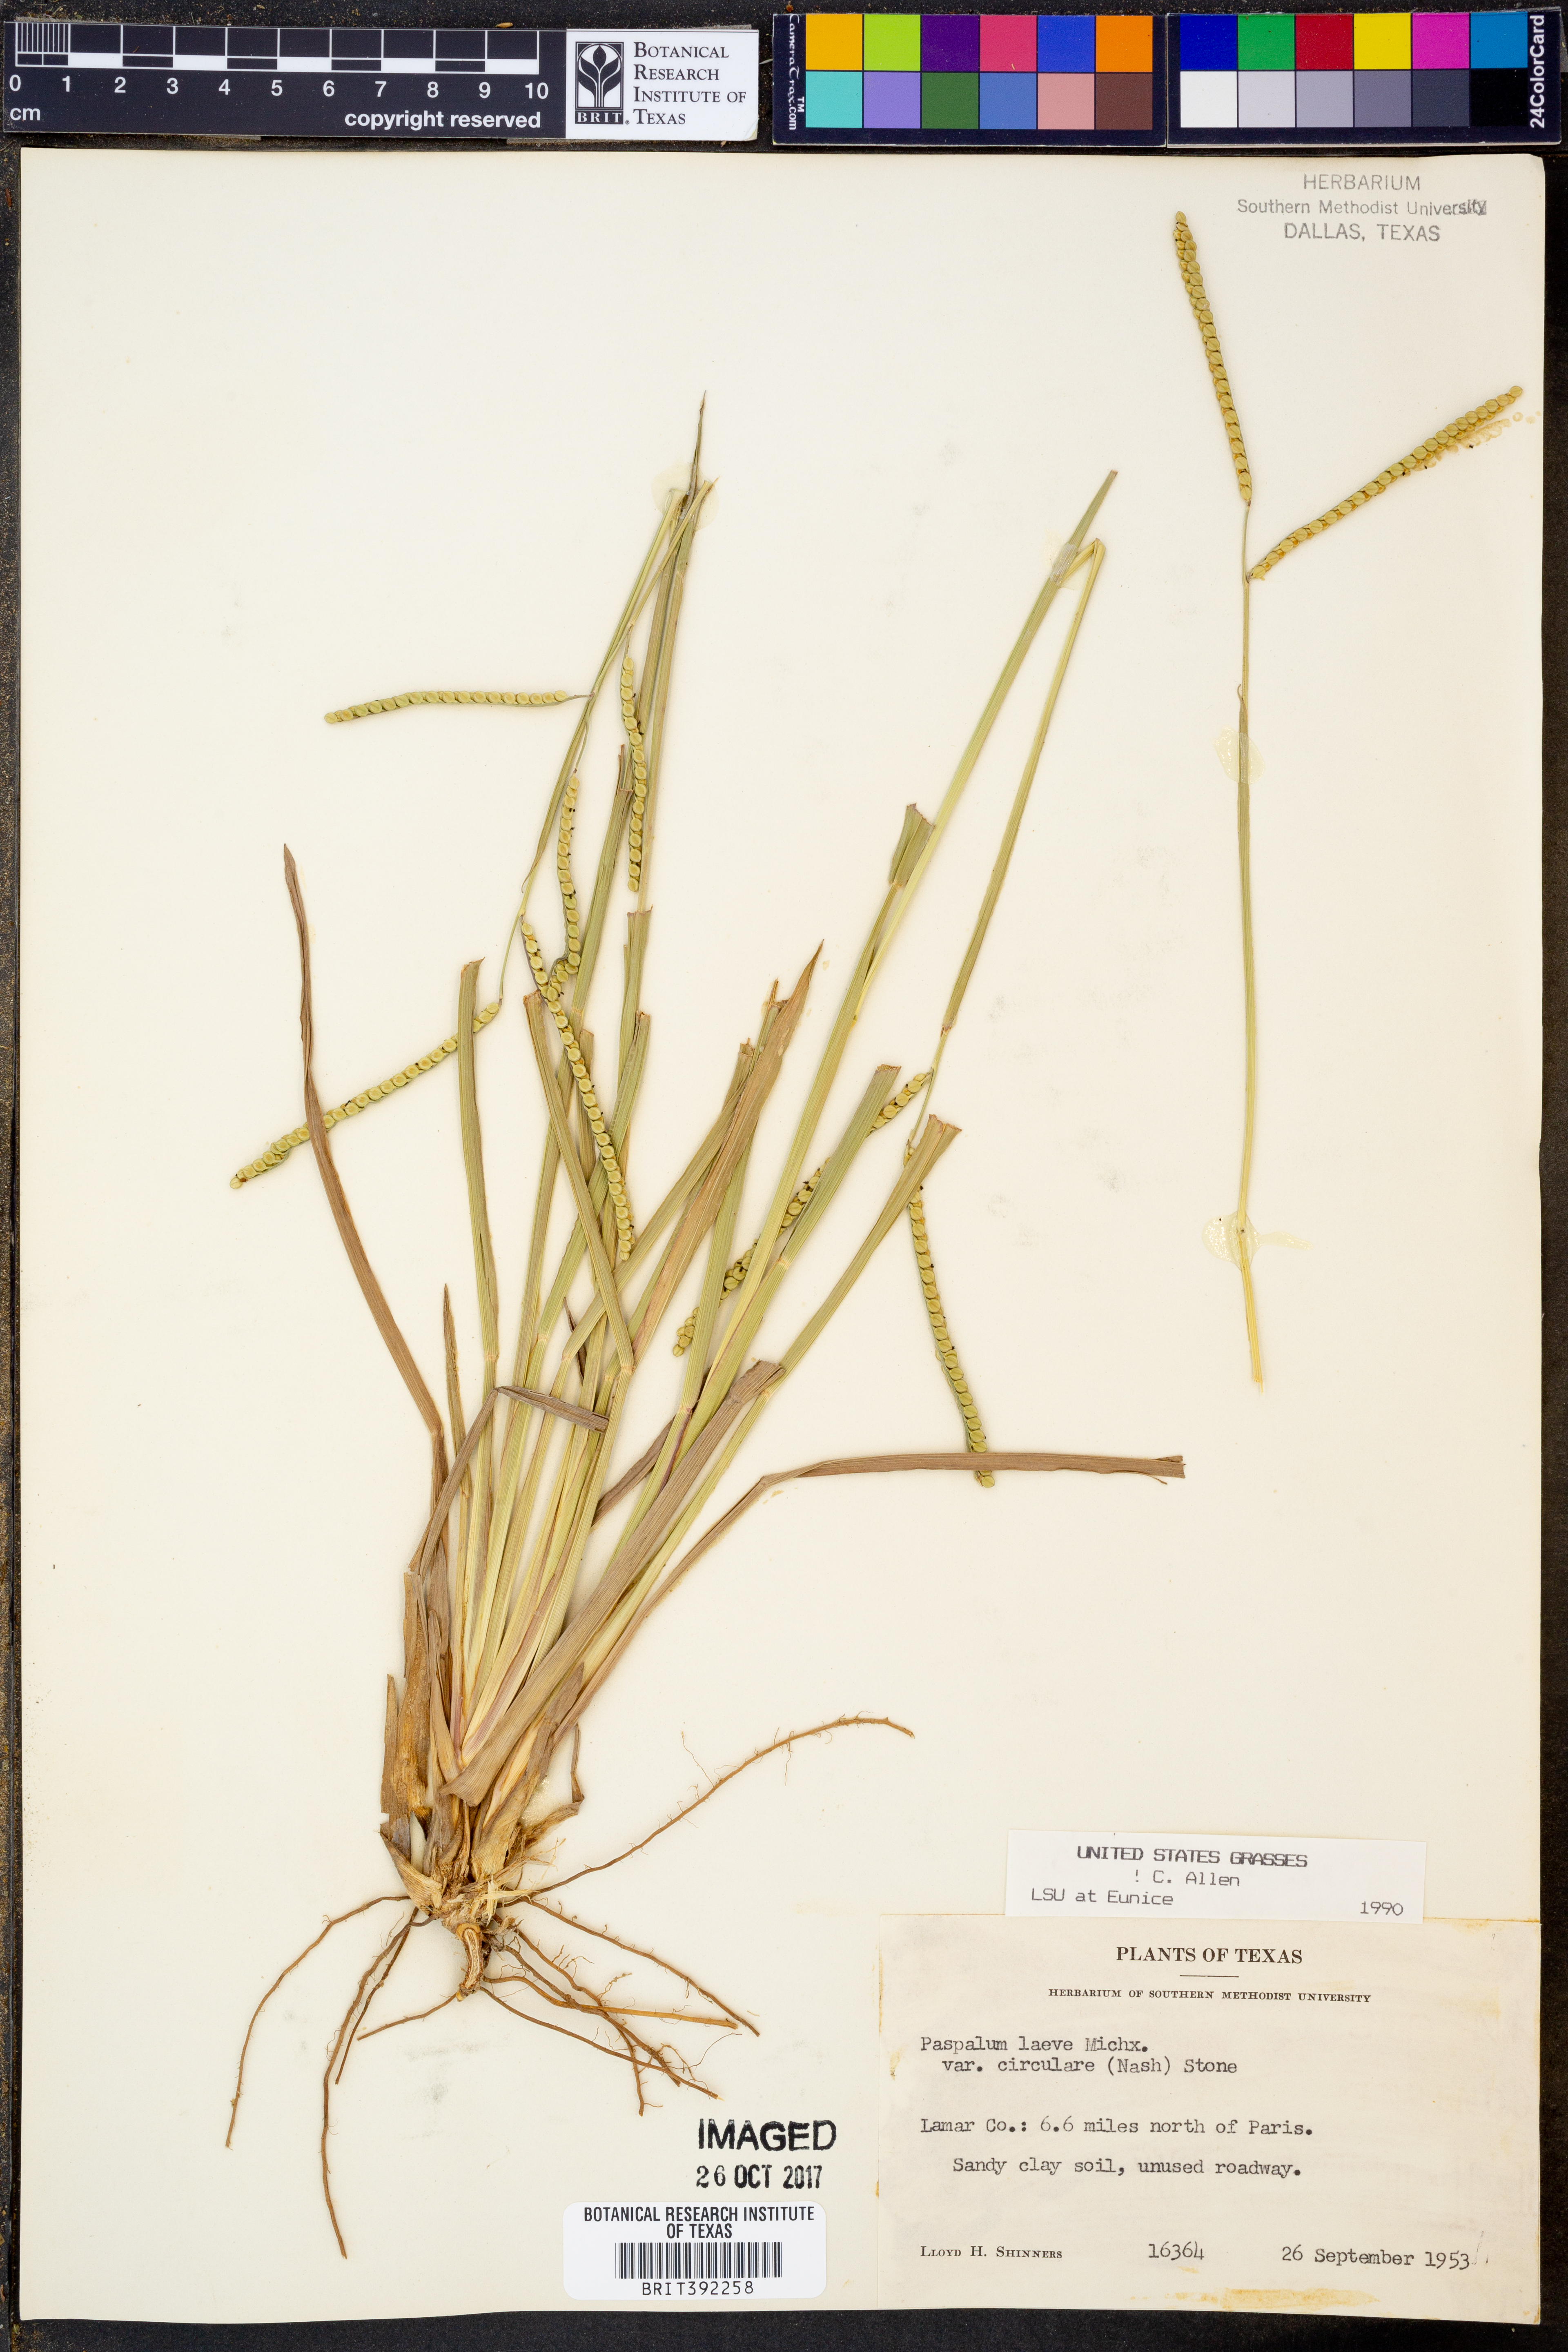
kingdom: Plantae
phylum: Tracheophyta
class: Liliopsida
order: Poales
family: Poaceae
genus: Paspalum
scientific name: Paspalum laeve
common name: Field paspalum
